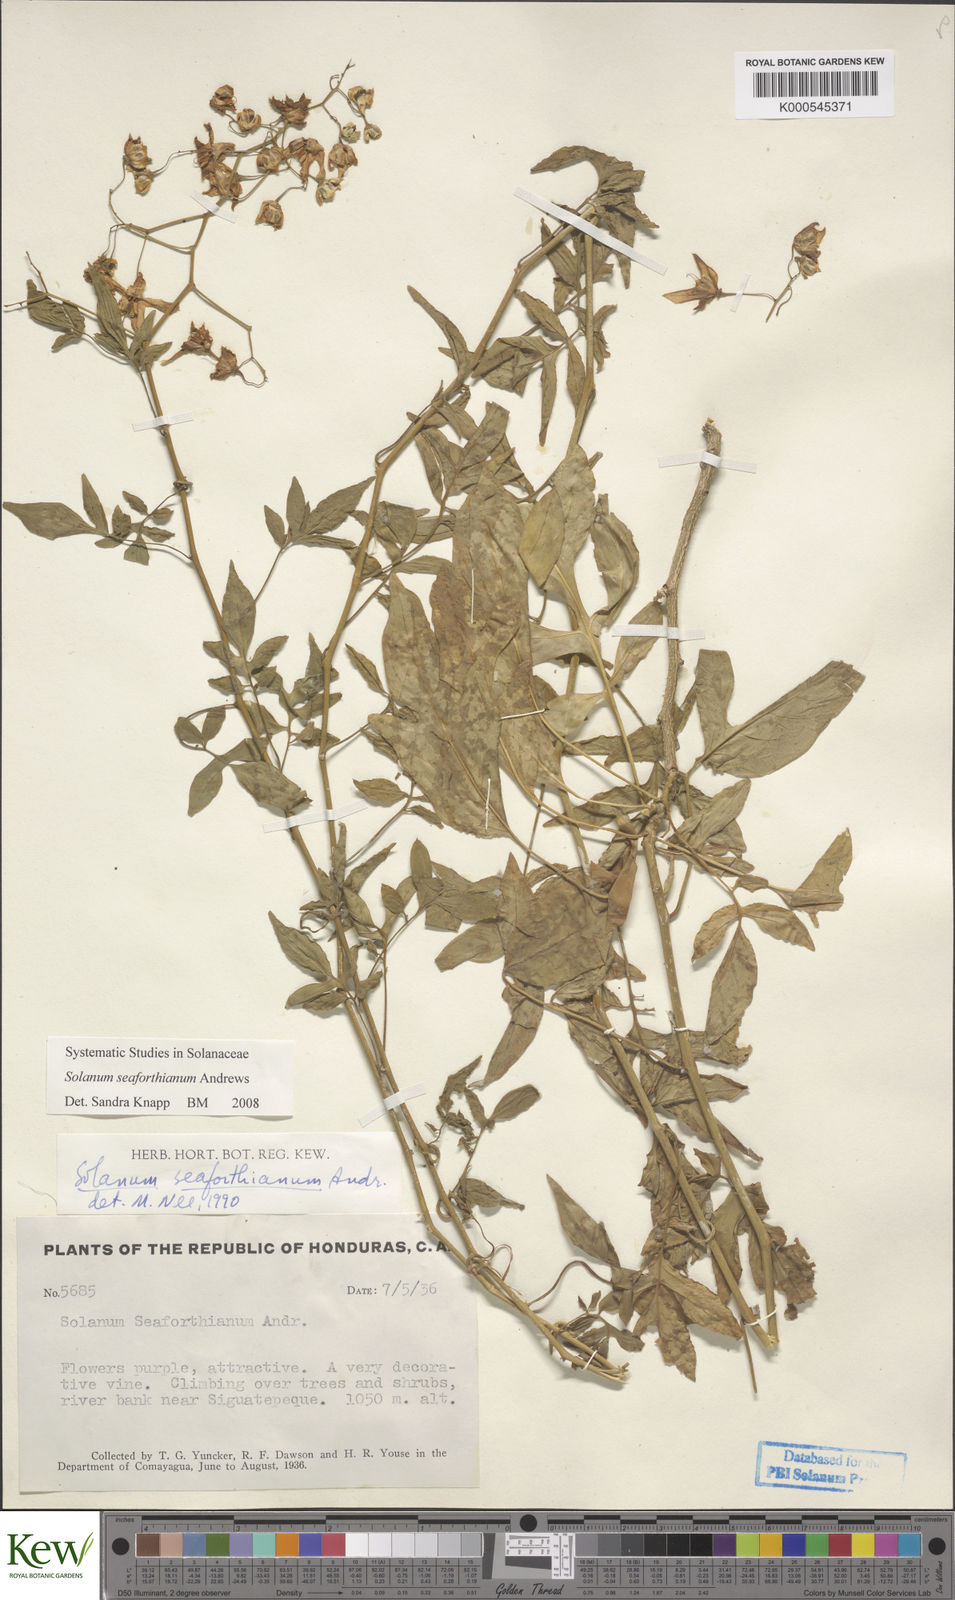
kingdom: Plantae
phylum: Tracheophyta
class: Magnoliopsida
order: Solanales
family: Solanaceae
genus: Solanum
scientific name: Solanum seaforthianum
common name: Brazilian nightshade
